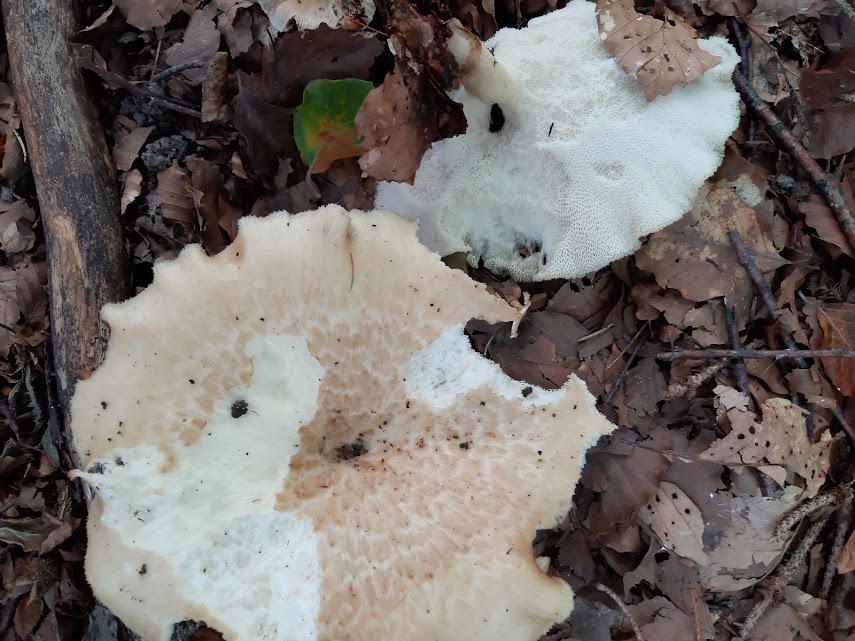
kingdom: Fungi
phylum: Basidiomycota
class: Agaricomycetes
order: Polyporales
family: Polyporaceae
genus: Polyporus
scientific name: Polyporus tuberaster
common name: knoldet stilkporesvamp
